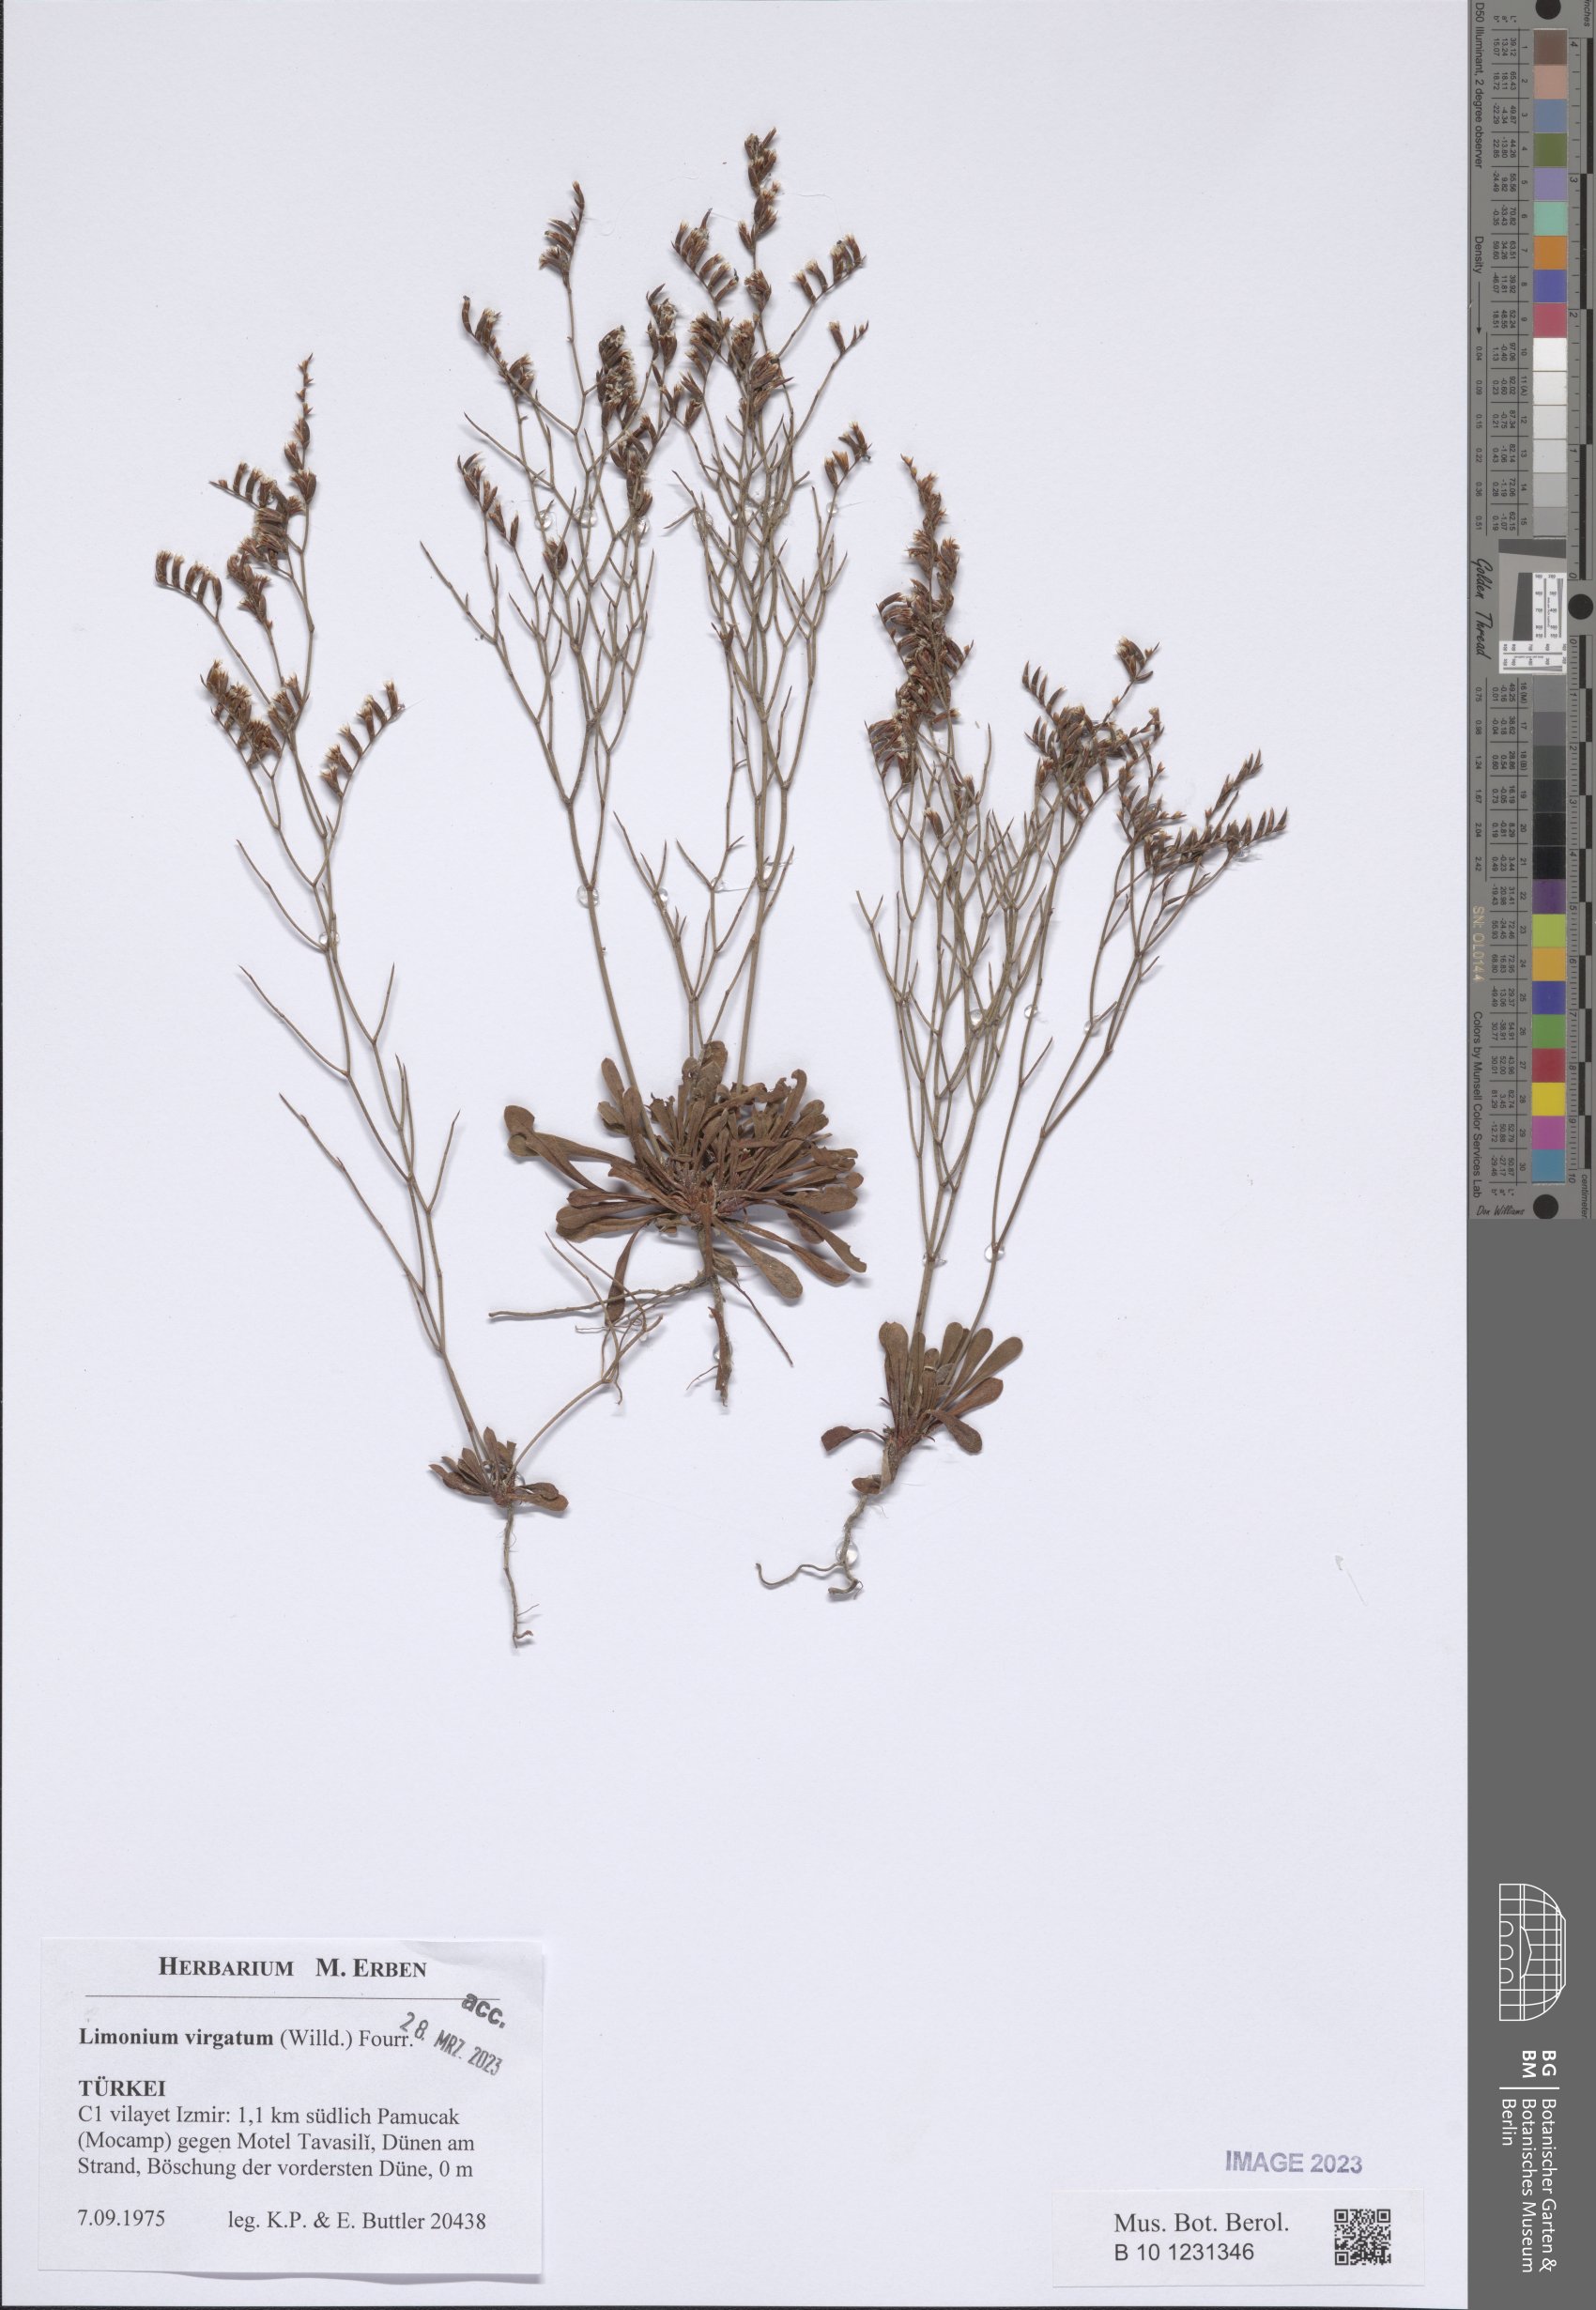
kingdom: Plantae
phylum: Tracheophyta
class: Magnoliopsida
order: Caryophyllales
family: Plumbaginaceae
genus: Limonium
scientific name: Limonium virgatum
